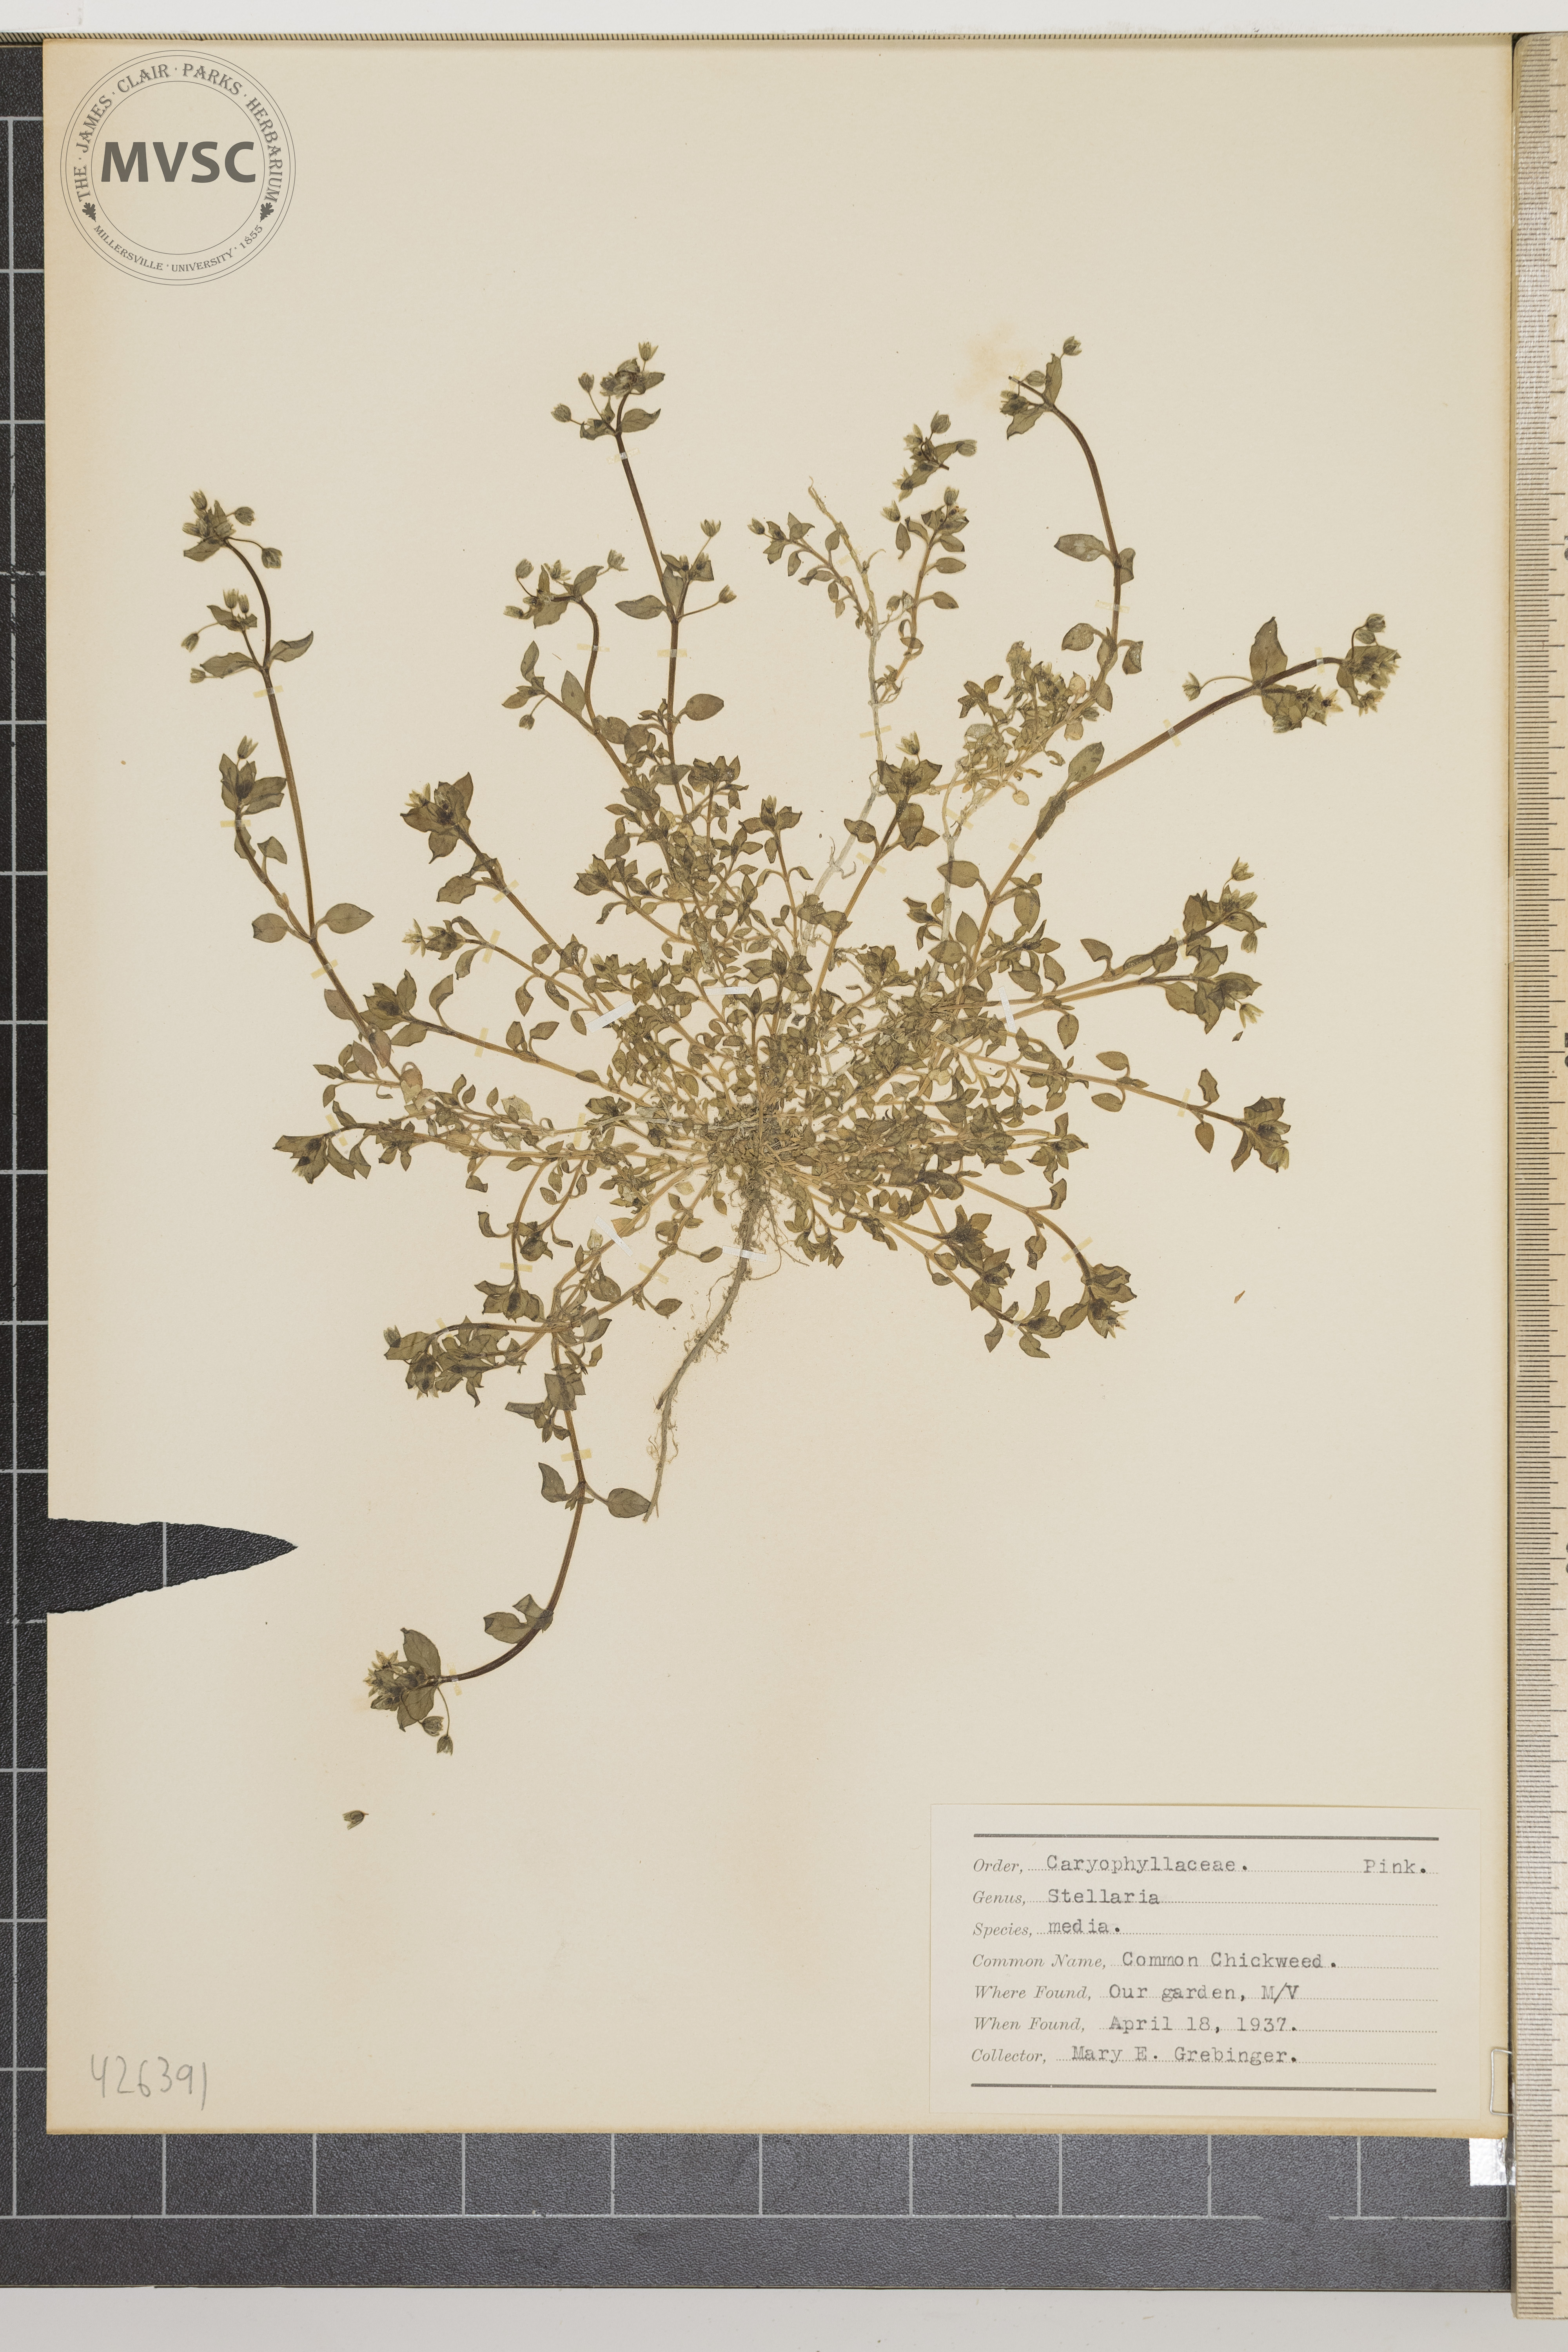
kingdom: Plantae
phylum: Tracheophyta
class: Magnoliopsida
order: Caryophyllales
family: Caryophyllaceae
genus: Stellaria
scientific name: Stellaria media
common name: Common Chickweed
